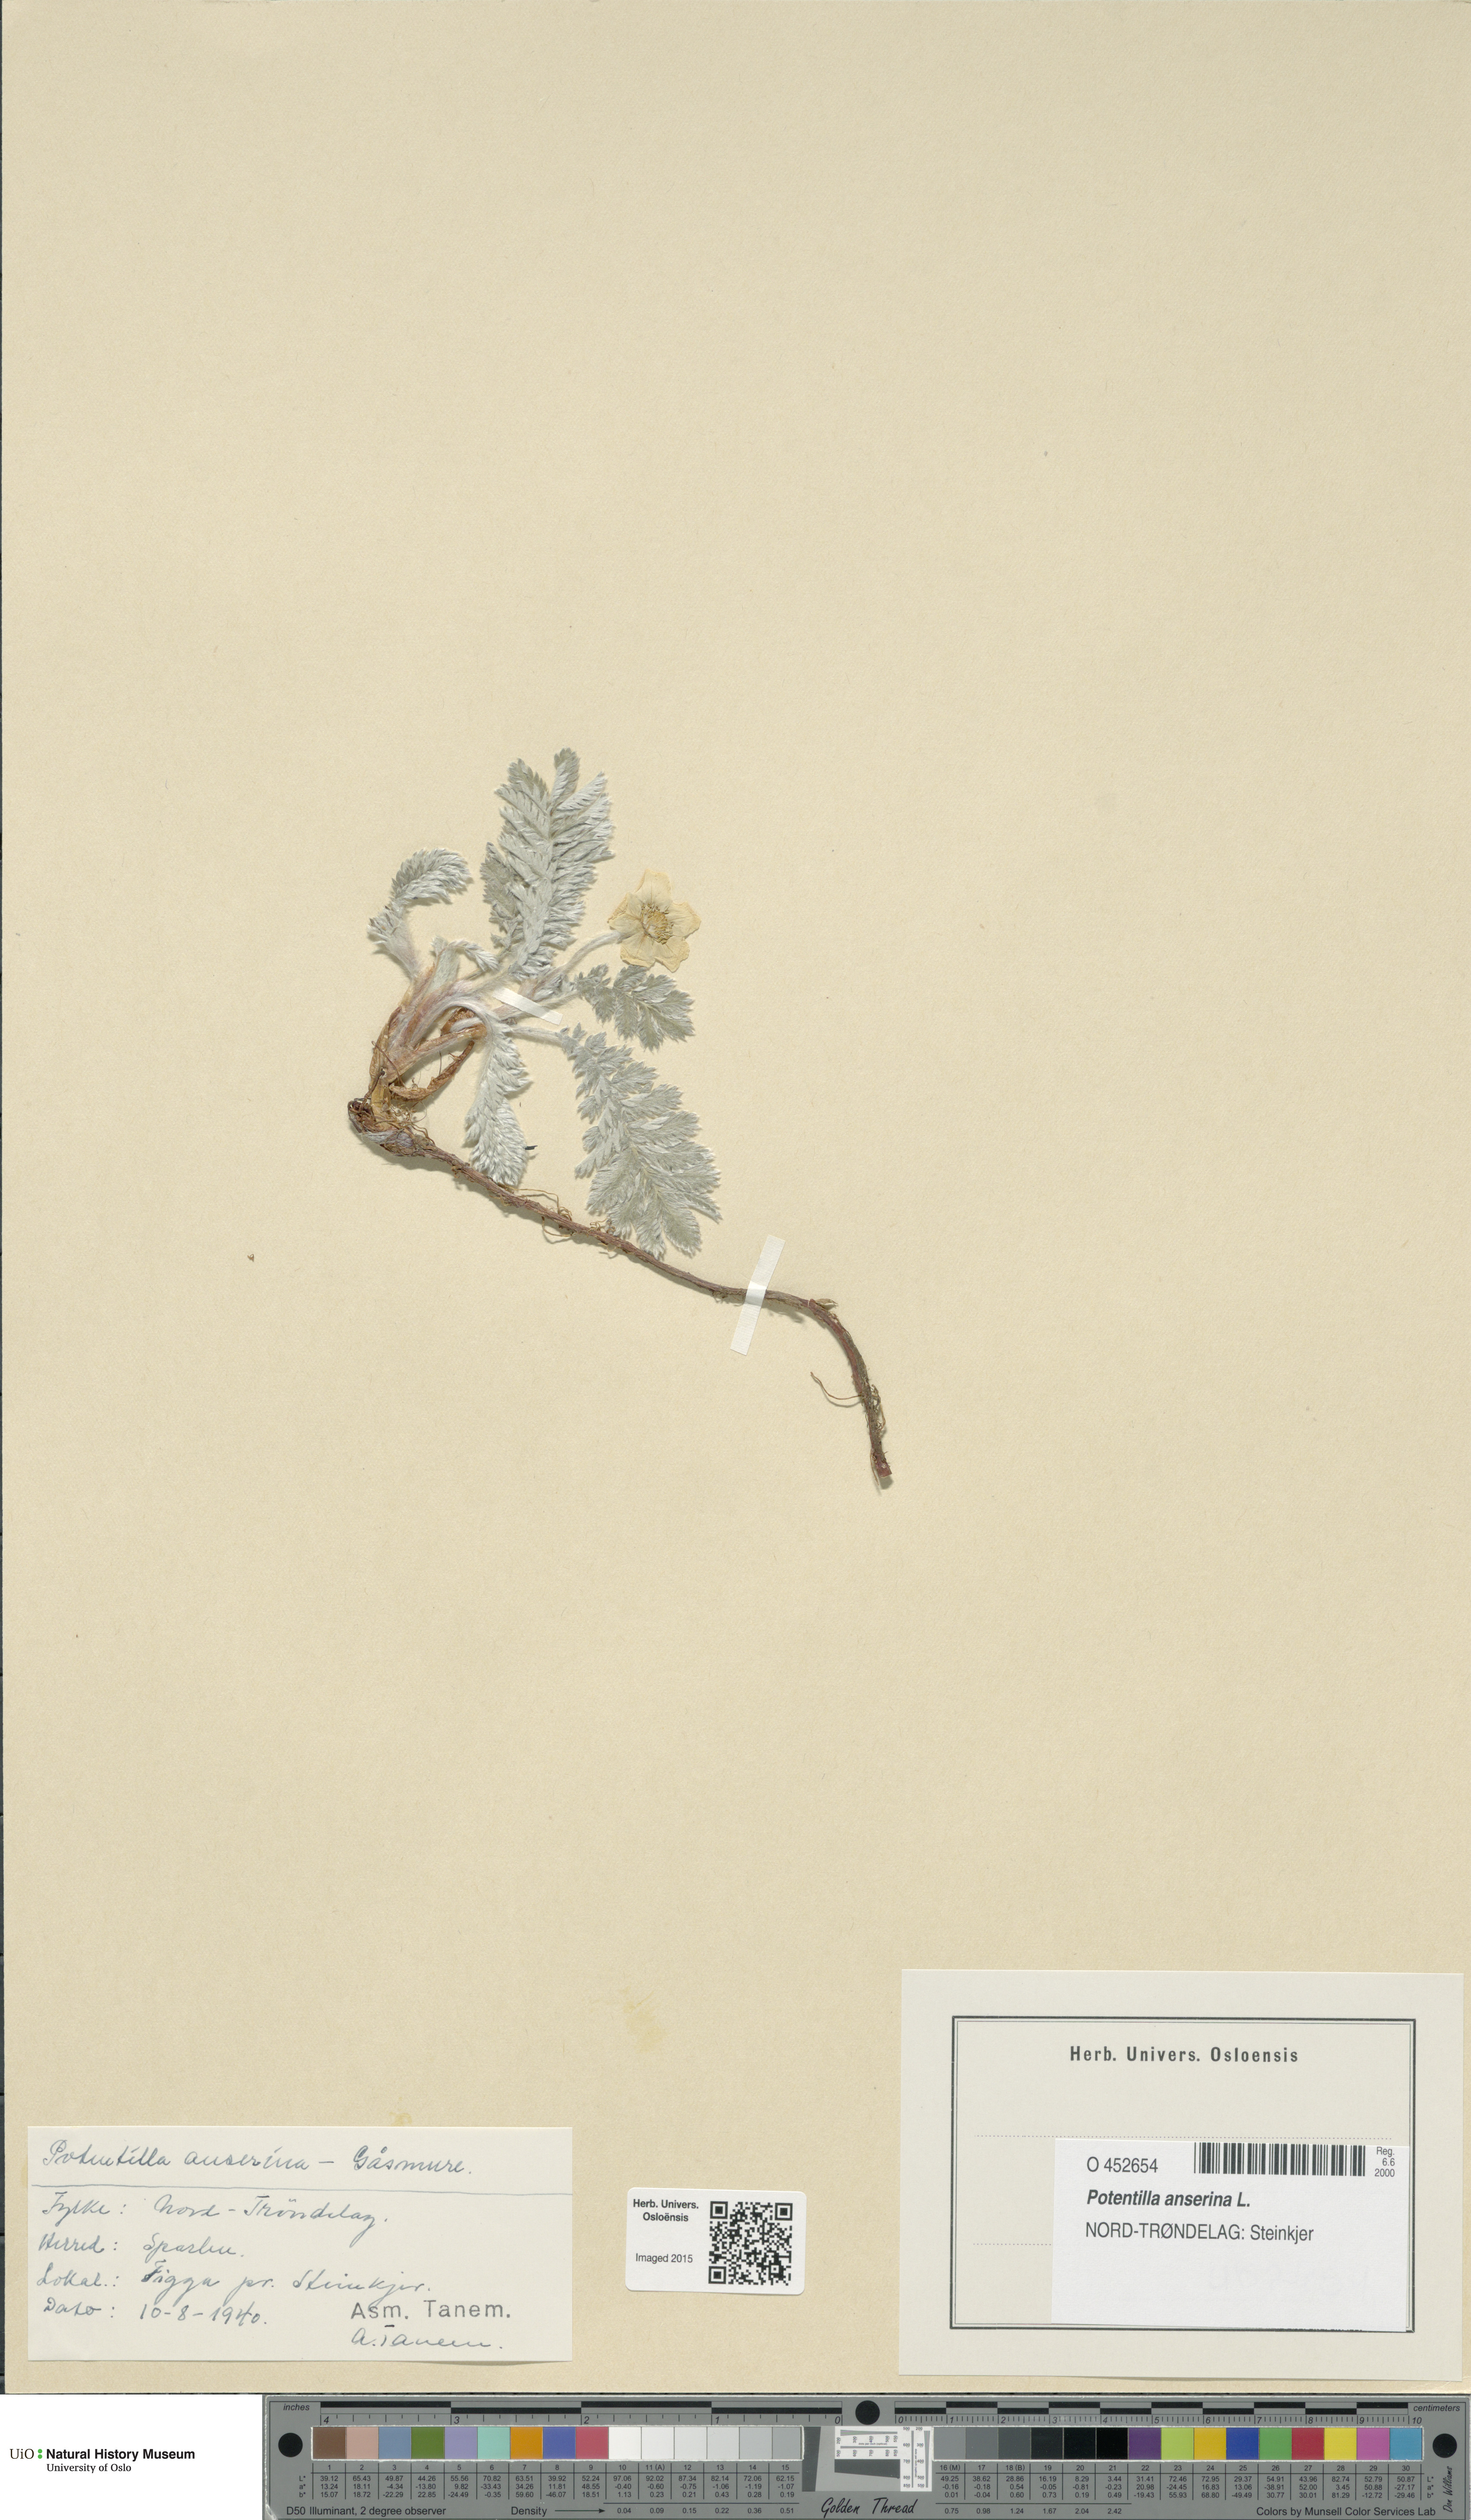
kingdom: Plantae
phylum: Tracheophyta
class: Magnoliopsida
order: Rosales
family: Rosaceae
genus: Argentina
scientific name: Argentina anserina
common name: Common silverweed
